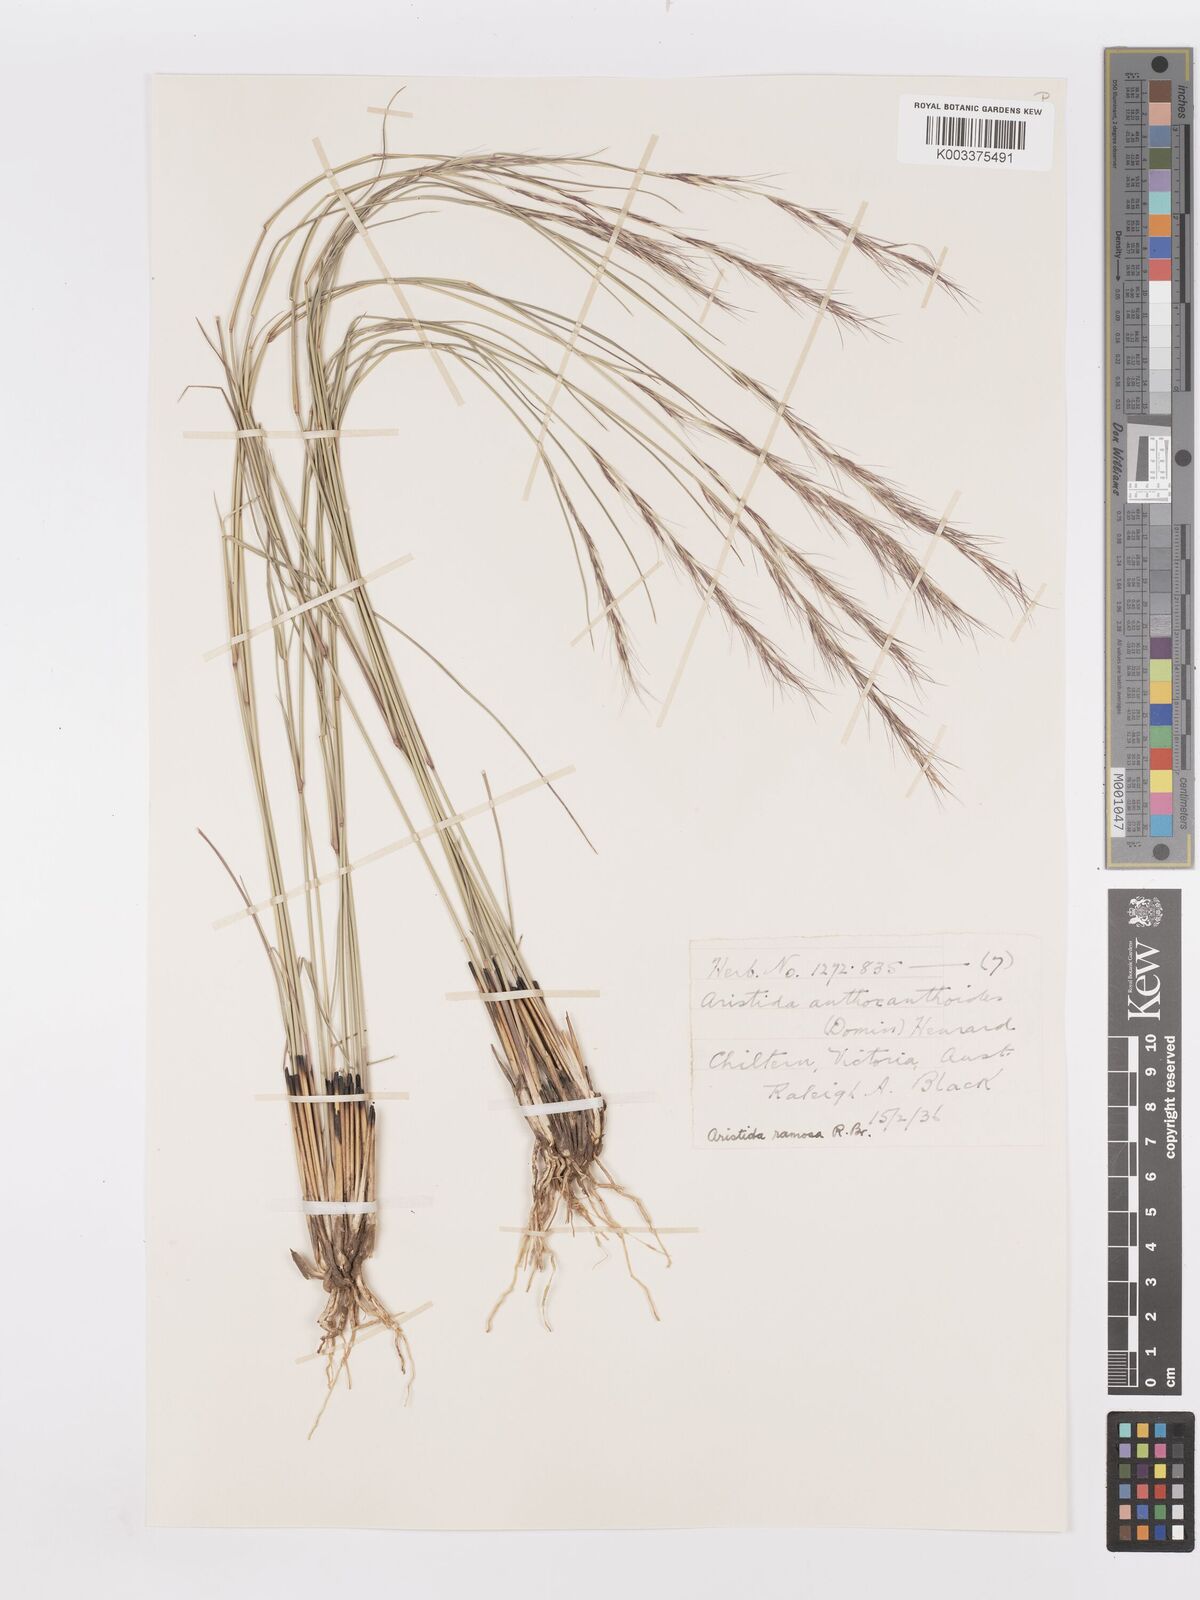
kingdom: Plantae
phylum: Tracheophyta
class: Liliopsida
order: Poales
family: Poaceae
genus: Aristida
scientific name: Aristida ramosa
